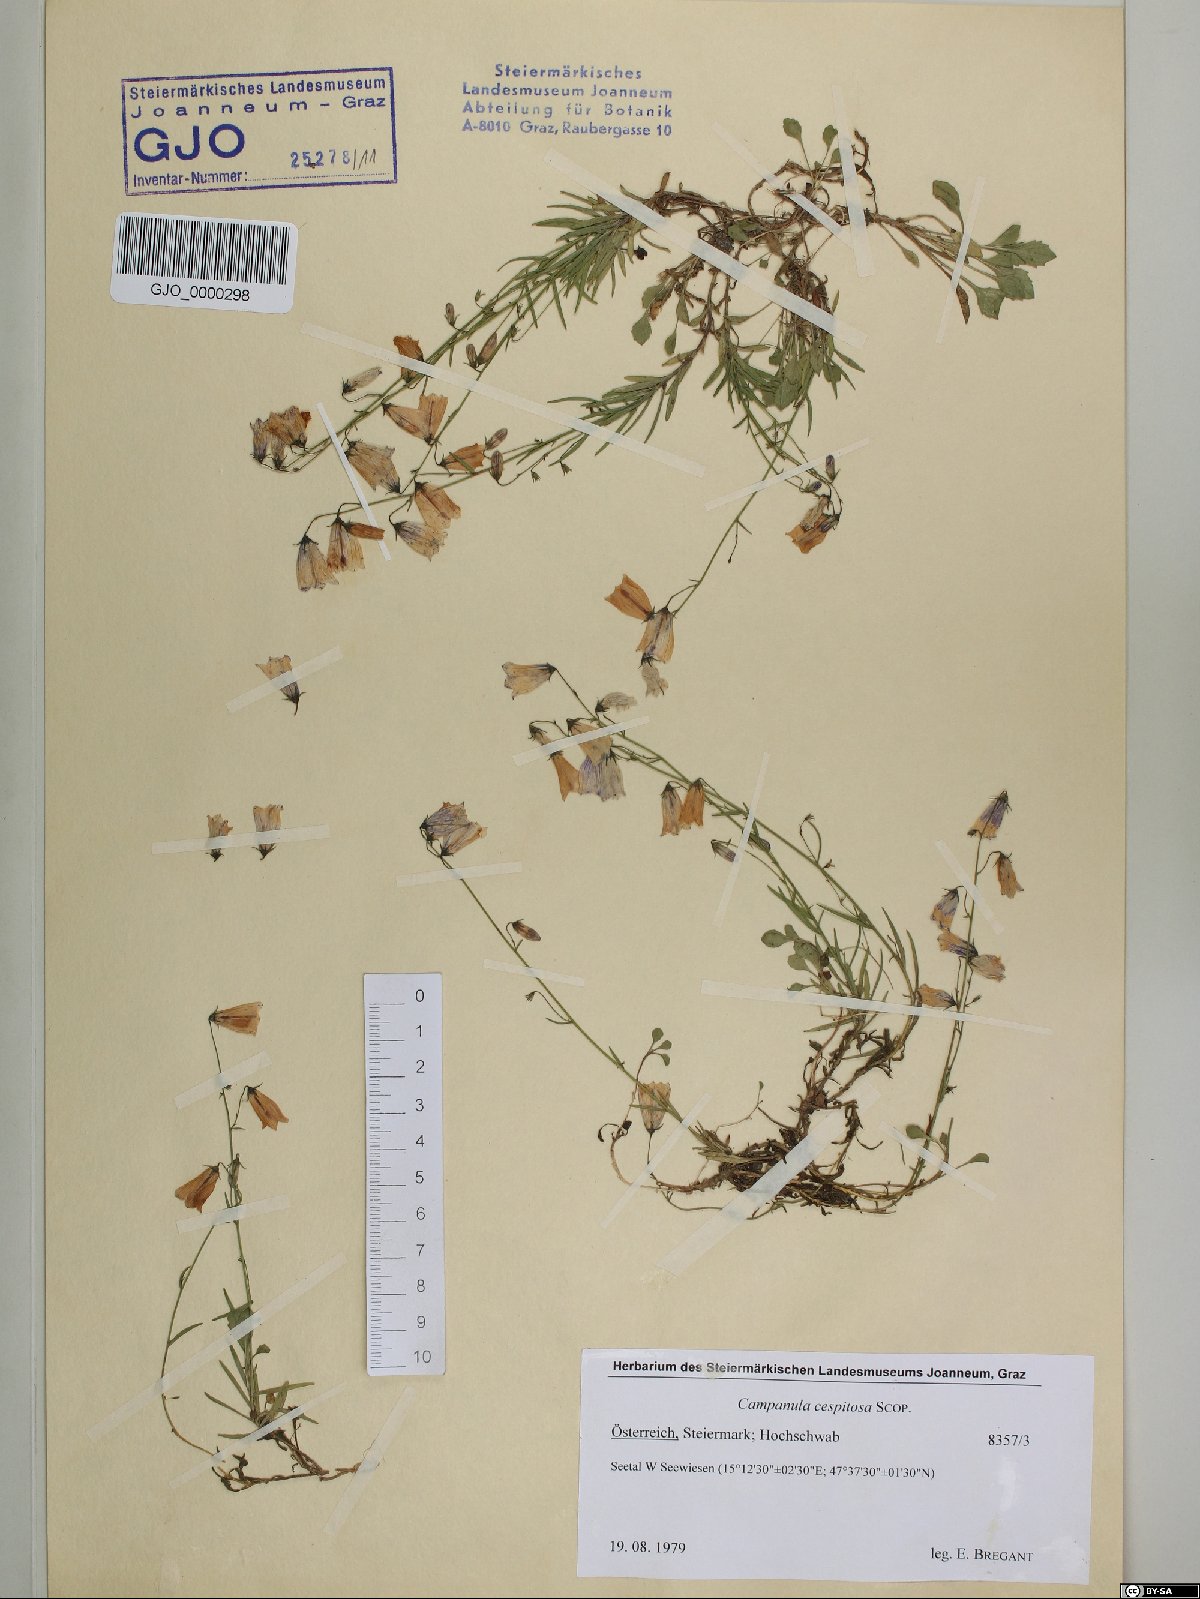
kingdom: Plantae
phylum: Tracheophyta
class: Magnoliopsida
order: Asterales
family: Campanulaceae
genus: Campanula
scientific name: Campanula cespitosa
